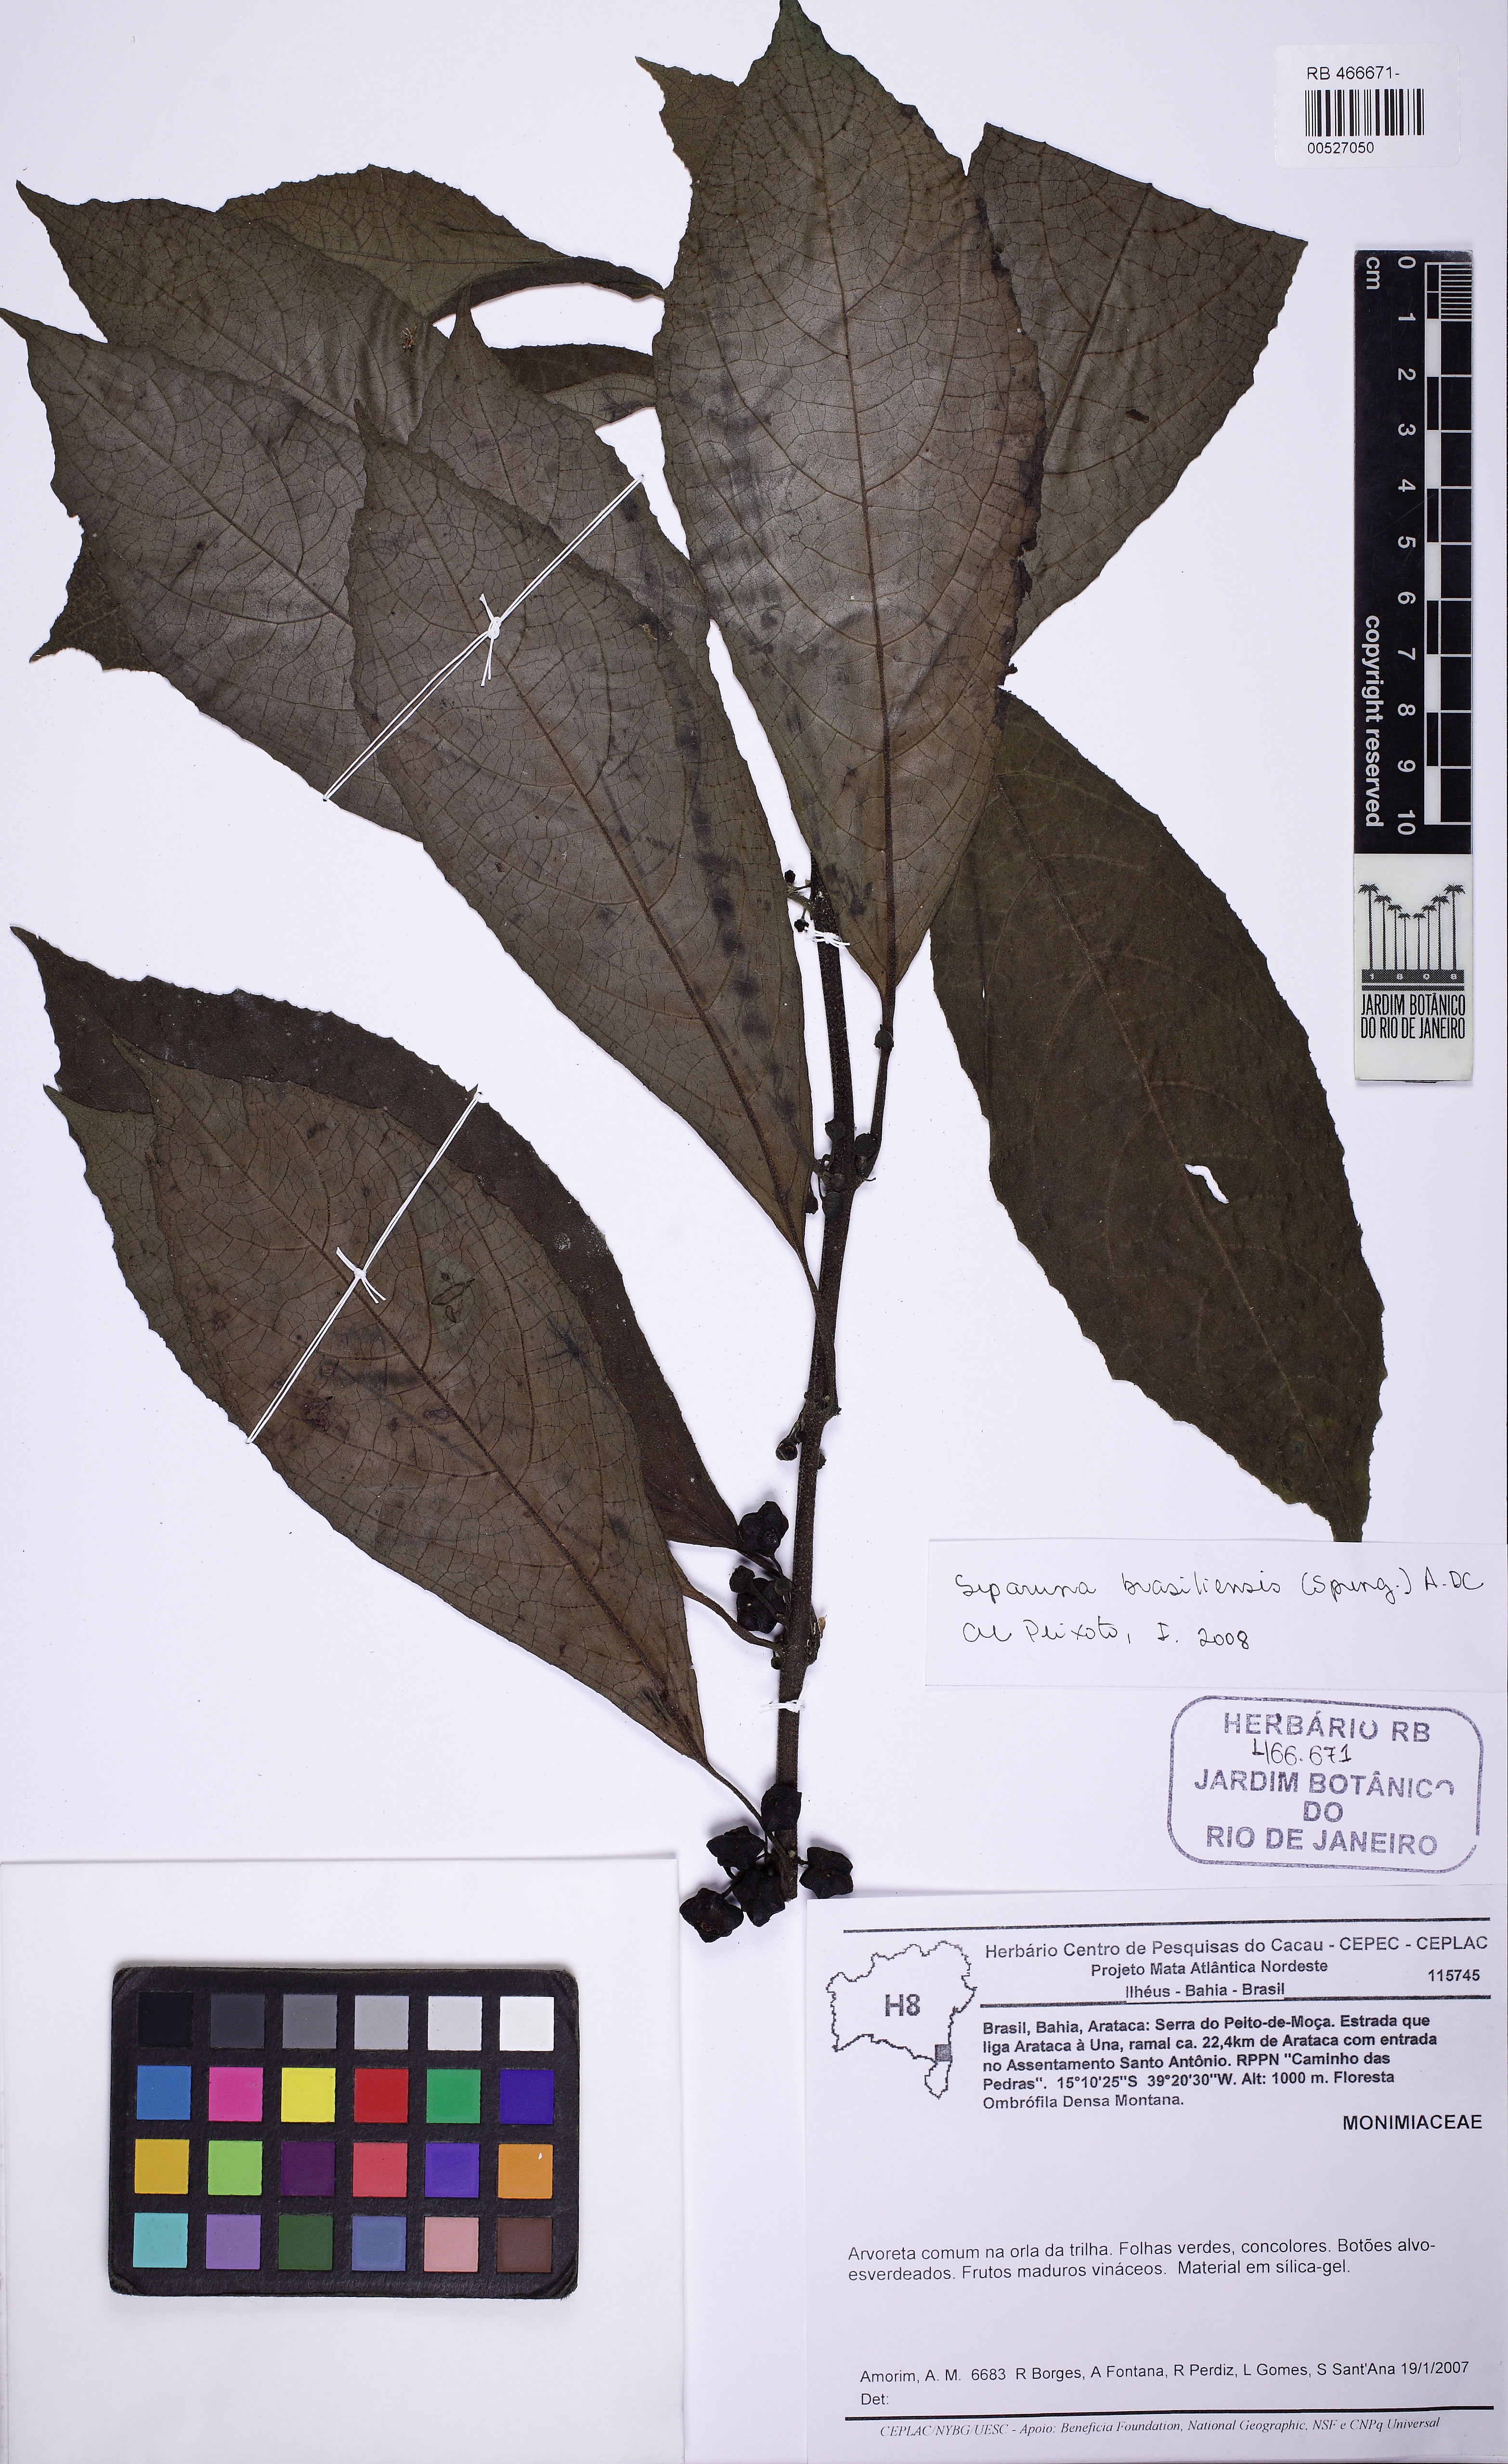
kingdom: Plantae
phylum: Tracheophyta
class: Magnoliopsida
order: Laurales
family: Siparunaceae
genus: Siparuna
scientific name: Siparuna brasiliensis
